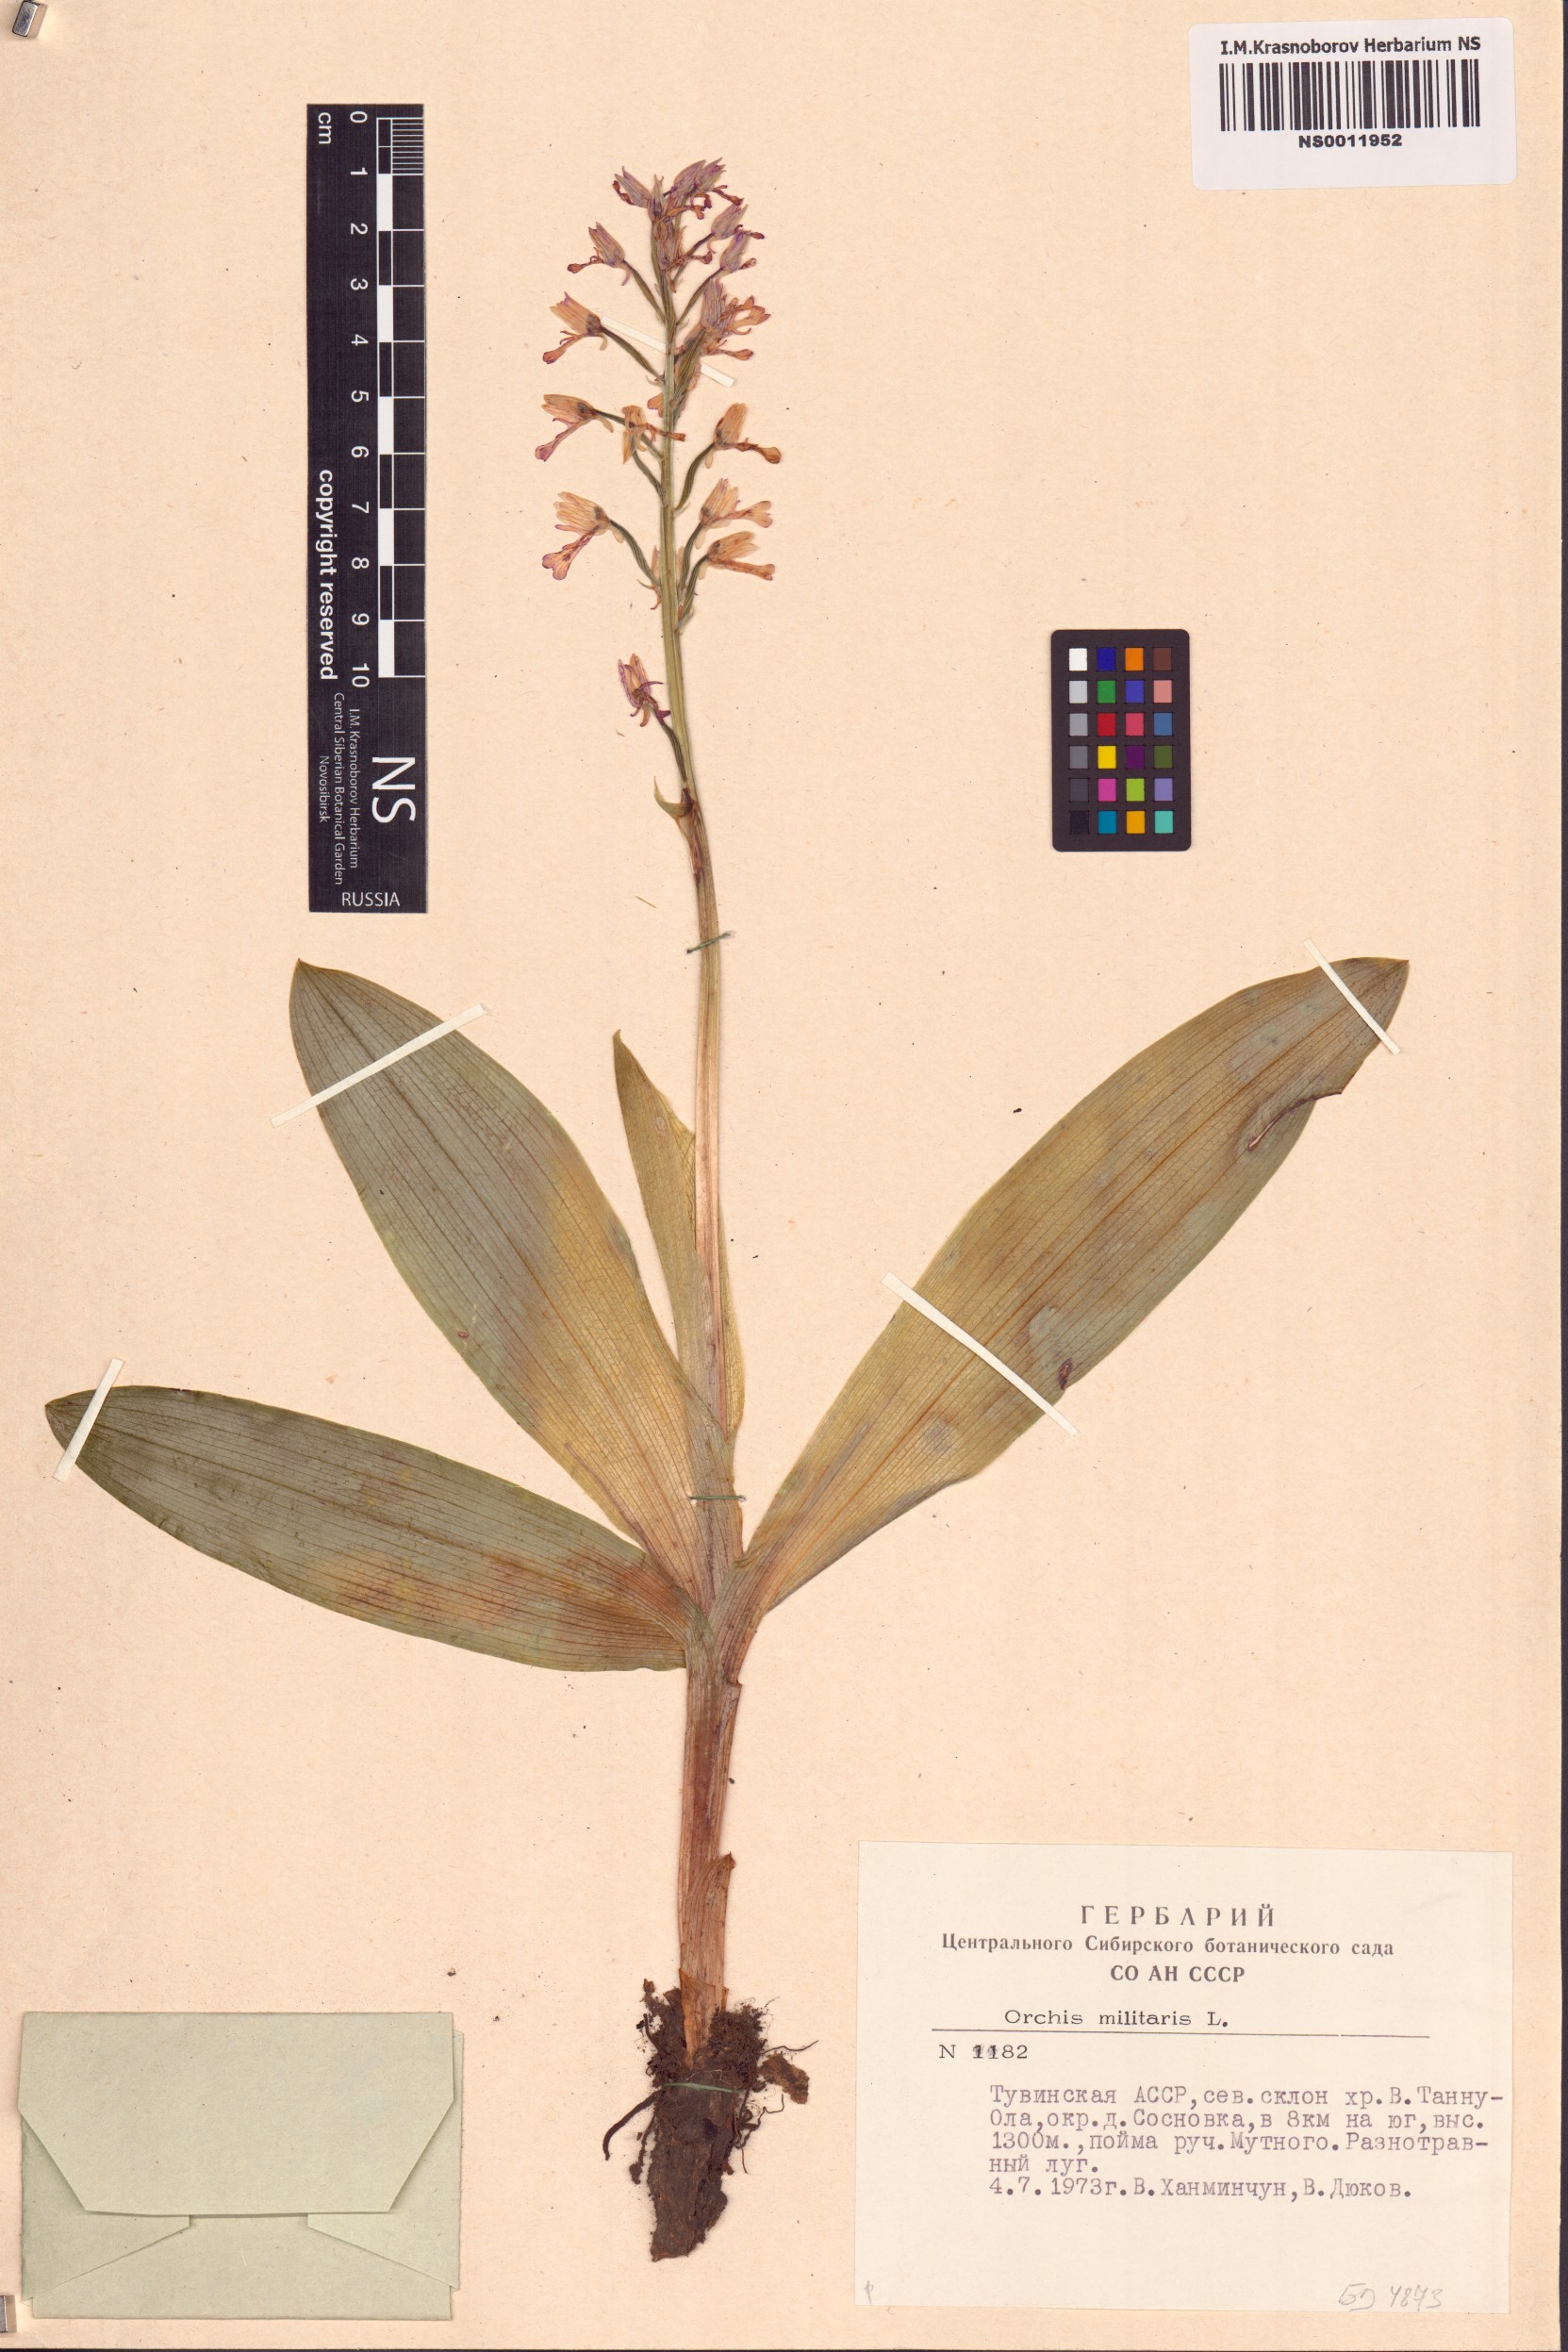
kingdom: Plantae
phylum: Tracheophyta
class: Liliopsida
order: Asparagales
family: Orchidaceae
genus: Orchis
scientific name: Orchis militaris
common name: Military orchid
